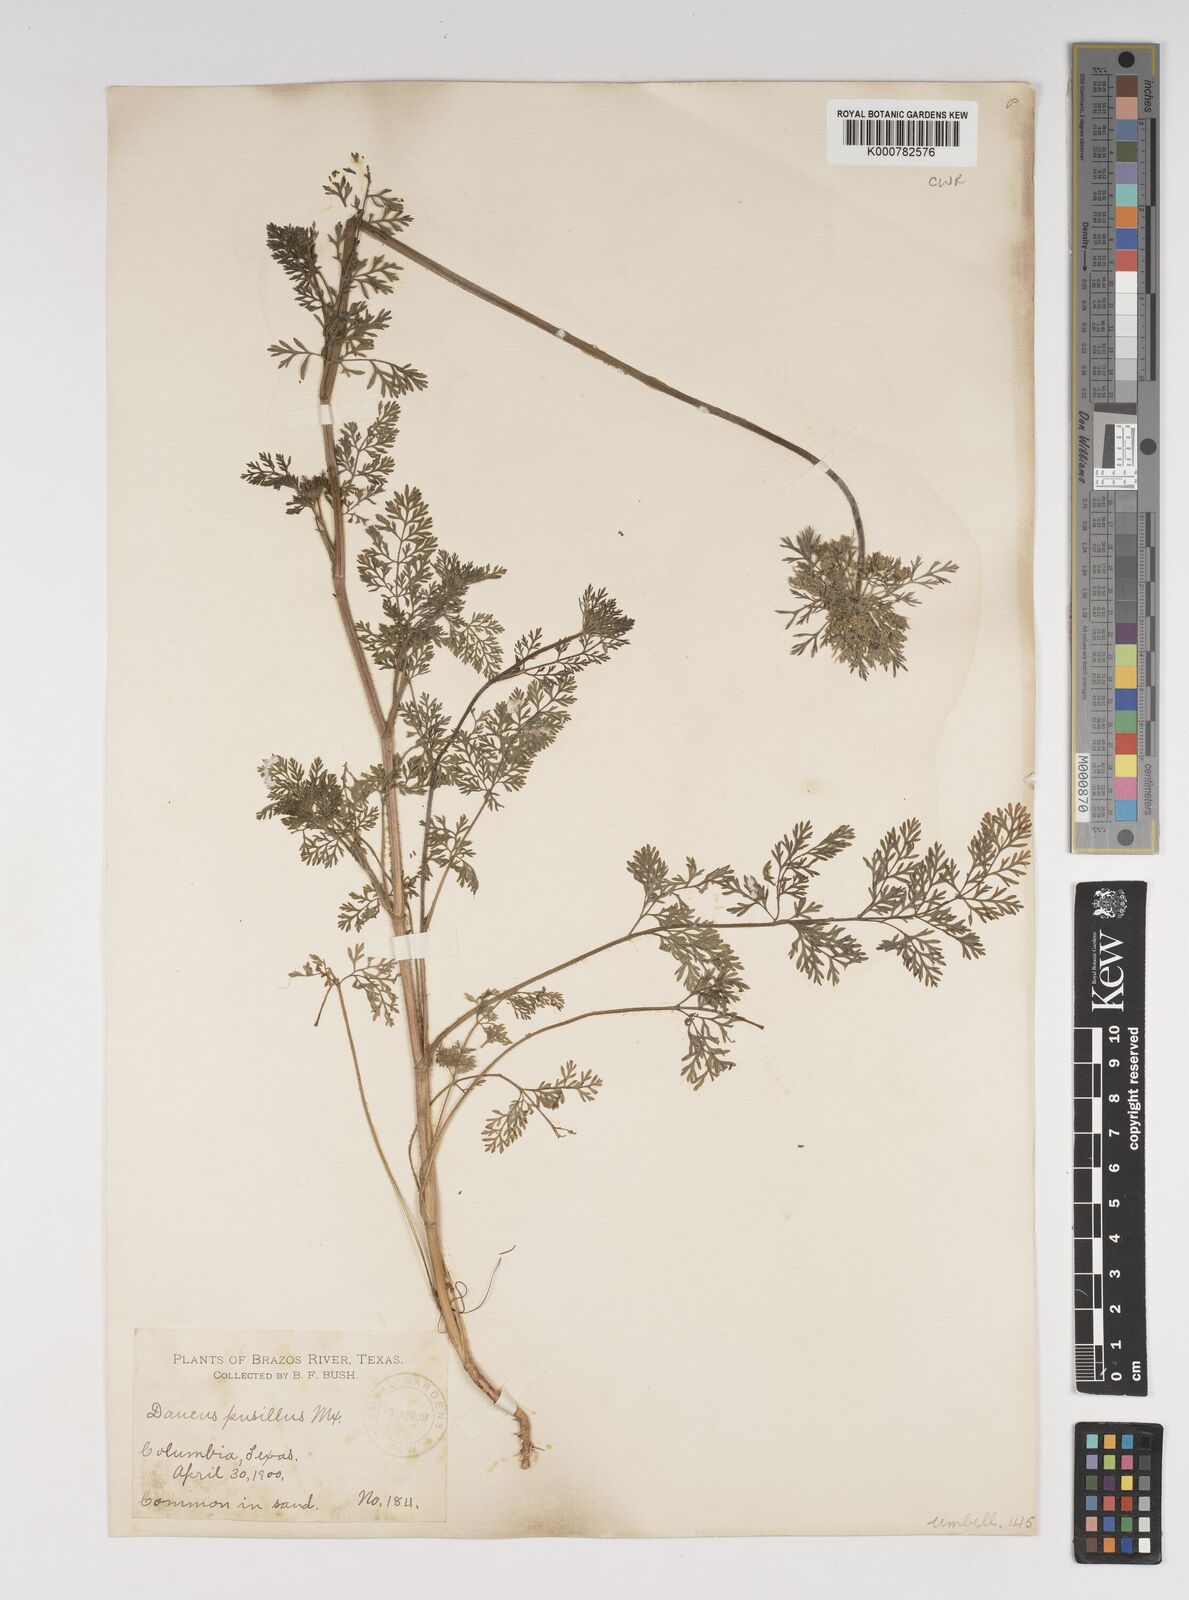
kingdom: Plantae
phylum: Tracheophyta
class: Magnoliopsida
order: Apiales
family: Apiaceae
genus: Daucus
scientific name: Daucus pusillus
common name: Southwest wild carrot
